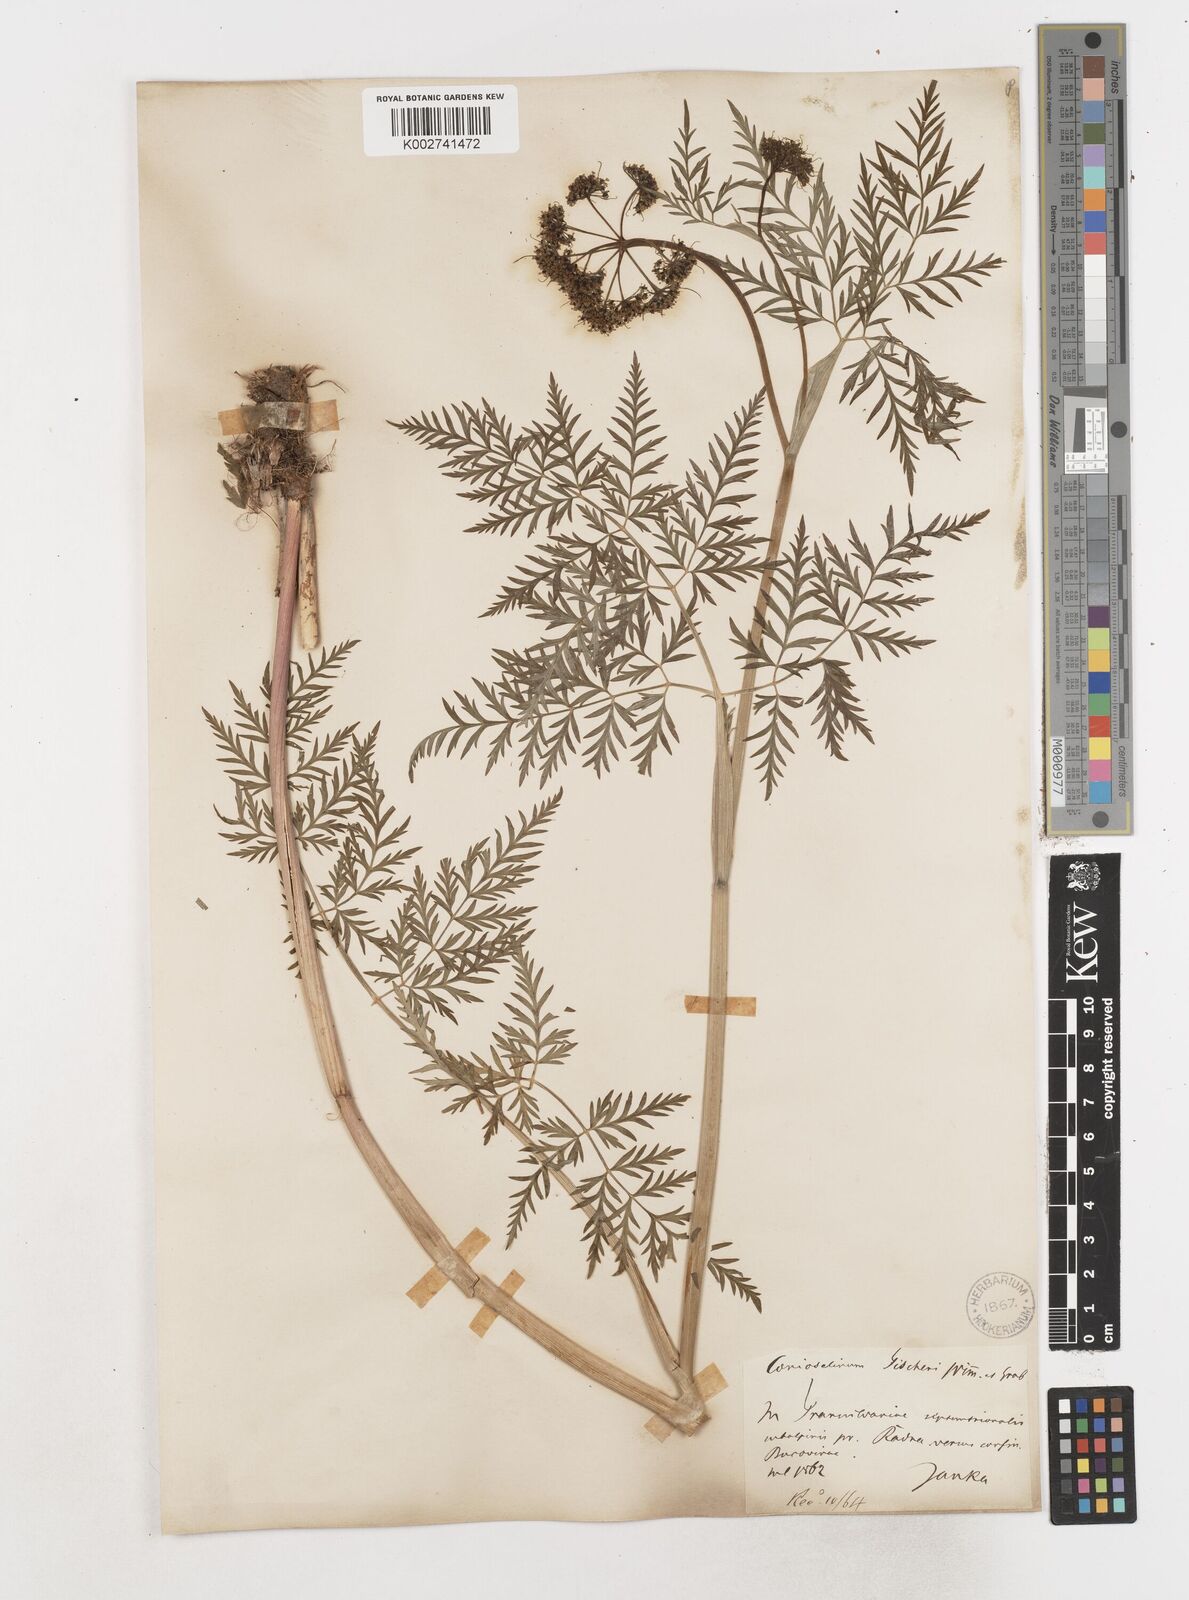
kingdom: Plantae
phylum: Tracheophyta
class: Magnoliopsida
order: Apiales
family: Apiaceae
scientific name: Apiaceae
